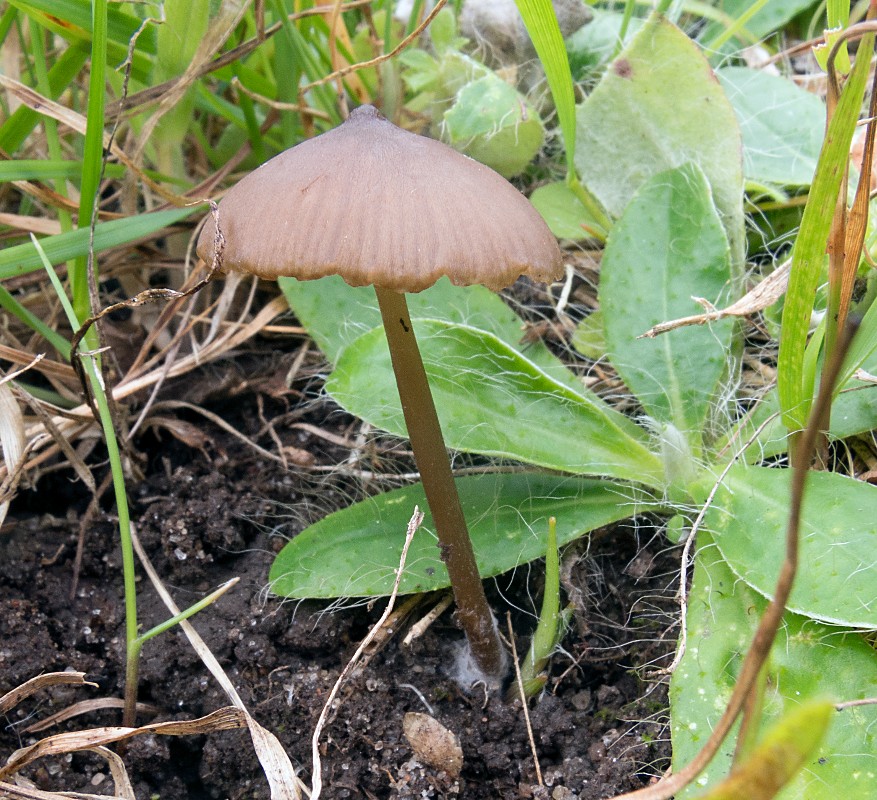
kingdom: Fungi
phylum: Basidiomycota
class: Agaricomycetes
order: Agaricales
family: Entolomataceae
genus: Entoloma
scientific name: Entoloma infula
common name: hvidbladet rødblad
